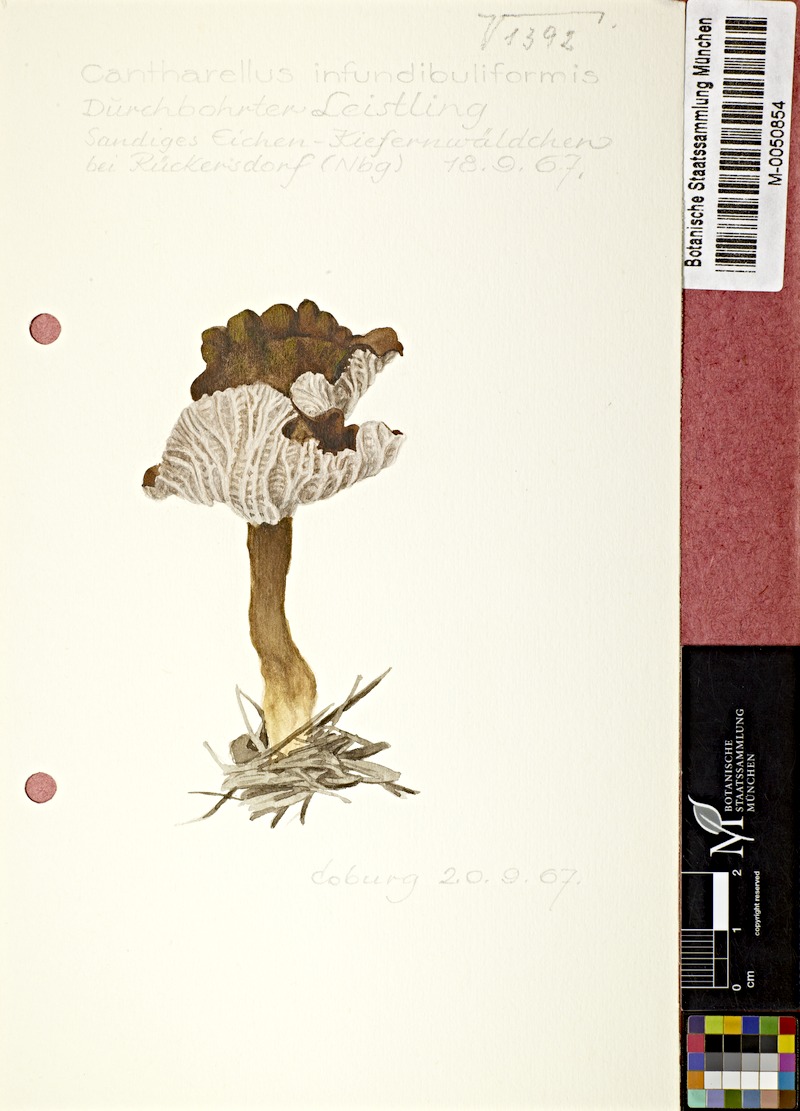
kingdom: Fungi
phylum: Basidiomycota
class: Agaricomycetes
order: Cantharellales
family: Hydnaceae
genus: Craterellus
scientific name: Craterellus tubaeformis
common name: Yellowfoot
